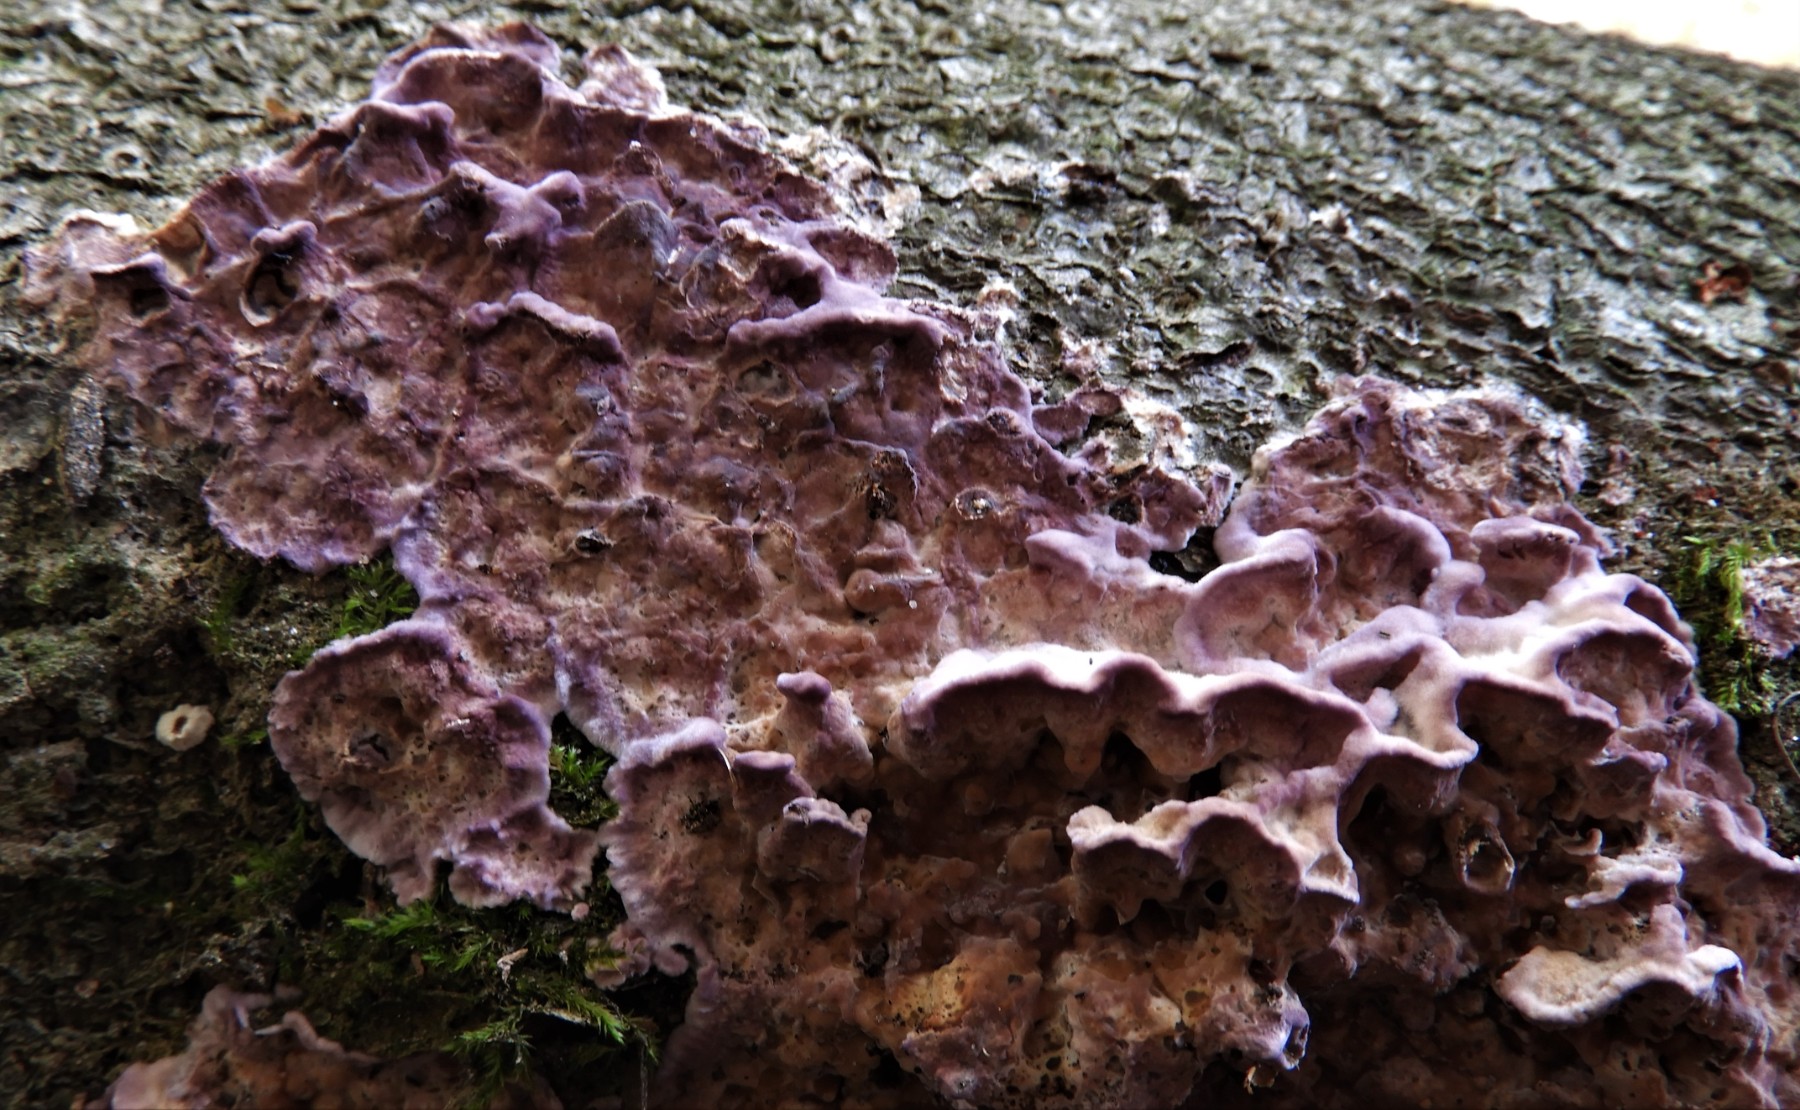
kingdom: Fungi
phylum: Basidiomycota
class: Agaricomycetes
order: Agaricales
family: Cyphellaceae
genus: Chondrostereum
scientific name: Chondrostereum purpureum
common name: purpurlædersvamp
